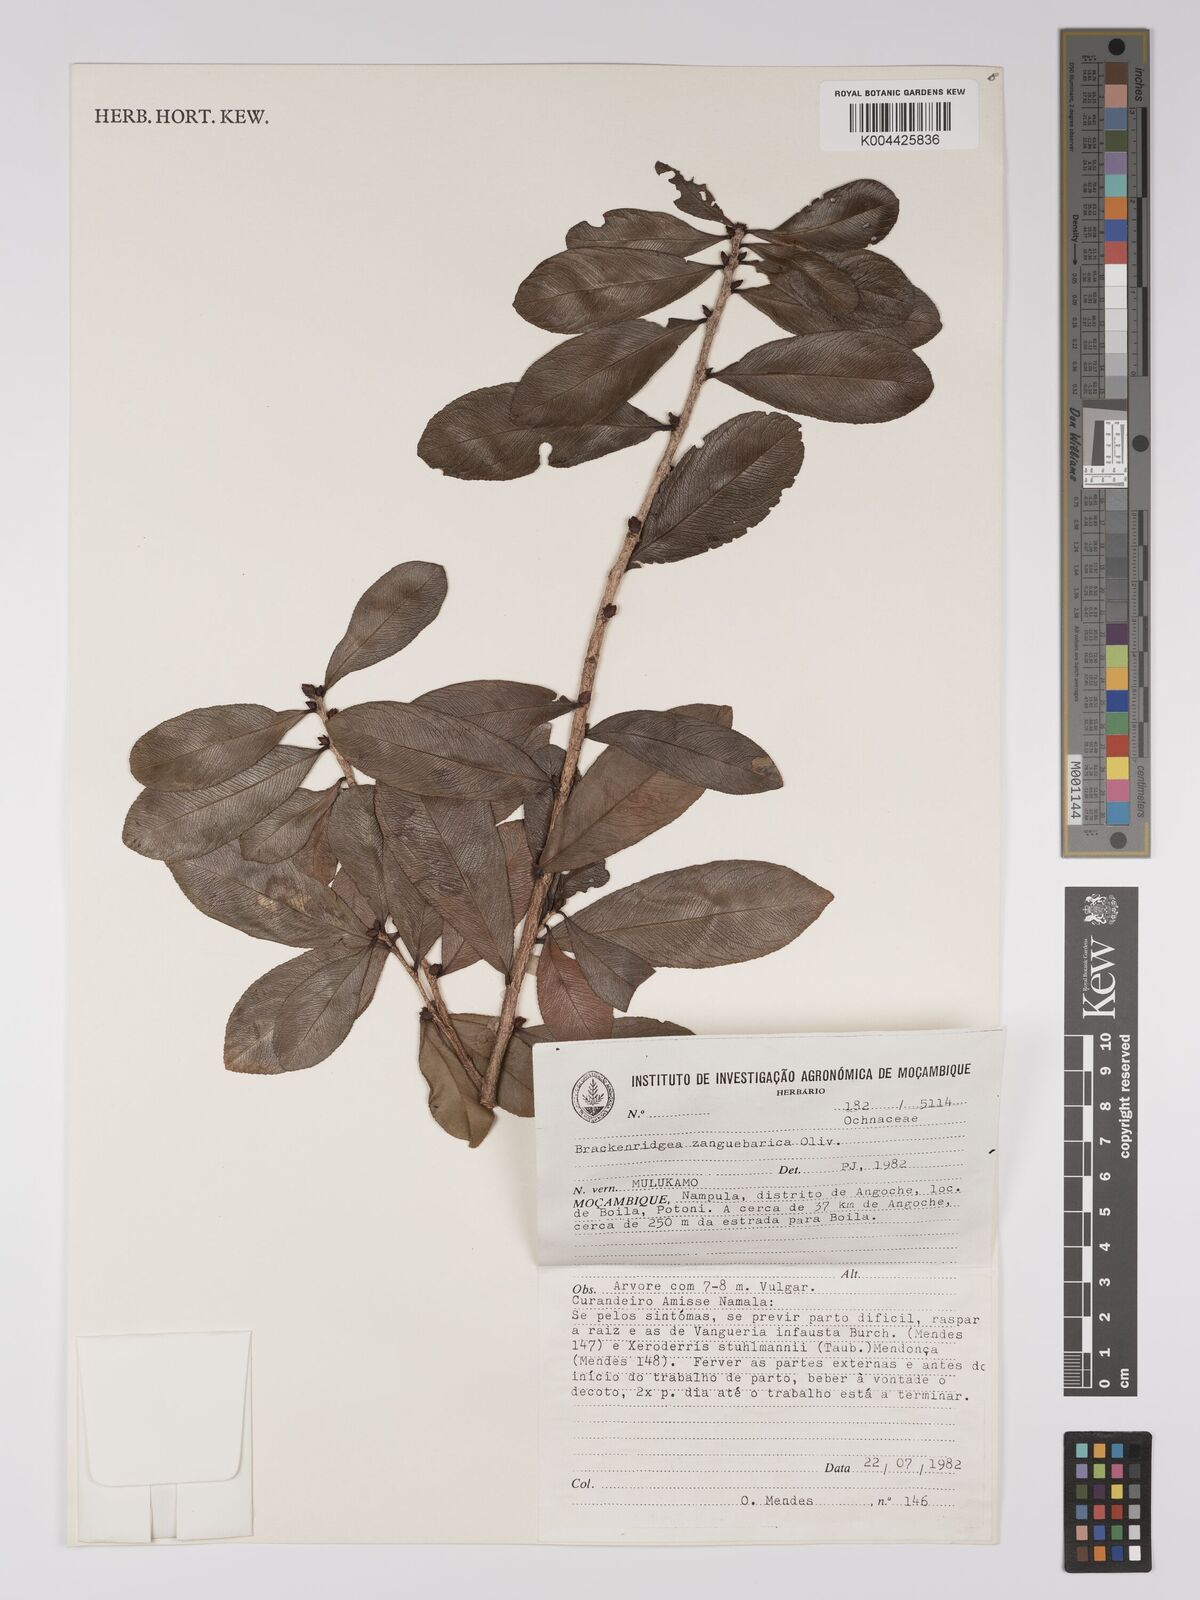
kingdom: Plantae
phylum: Tracheophyta
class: Magnoliopsida
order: Malpighiales
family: Ochnaceae
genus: Brackenridgea
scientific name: Brackenridgea zanguebarica
